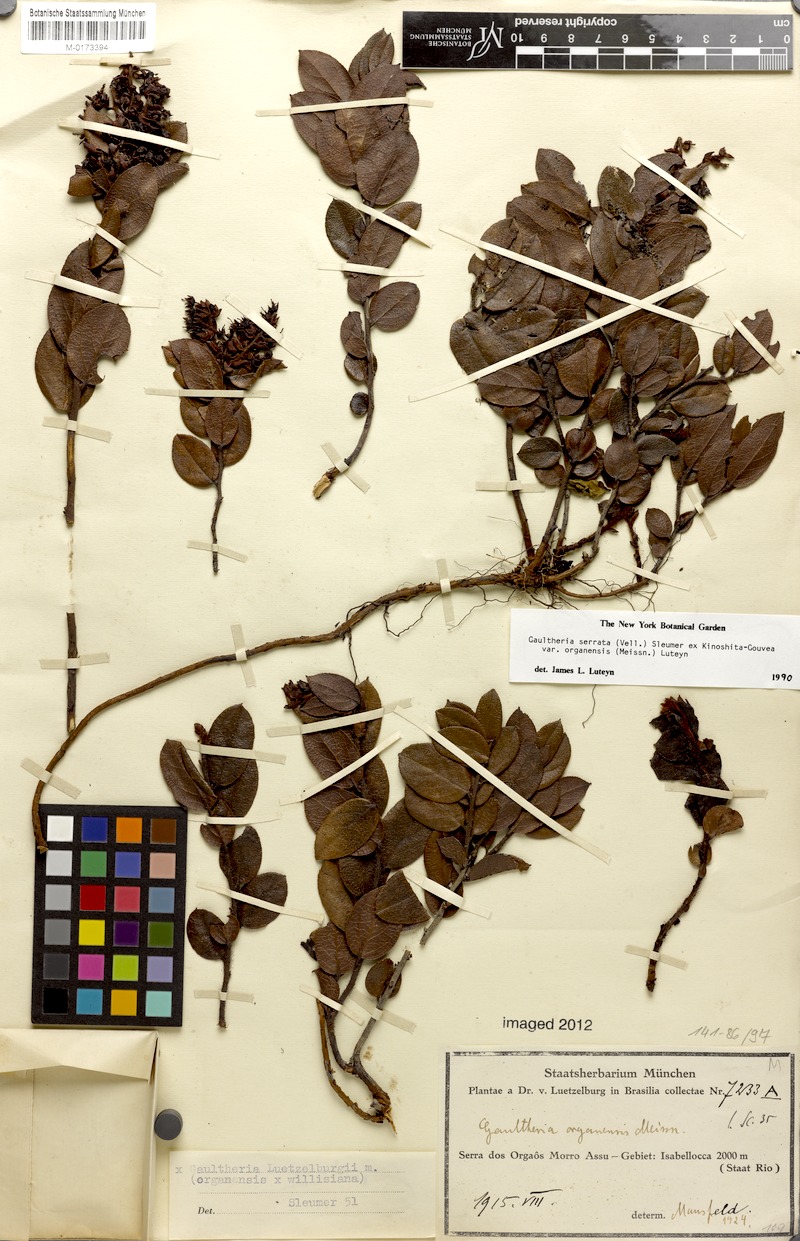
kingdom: Plantae
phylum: Tracheophyta
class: Magnoliopsida
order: Ericales
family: Ericaceae
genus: Gaultheria
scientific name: Gaultheria serrata
